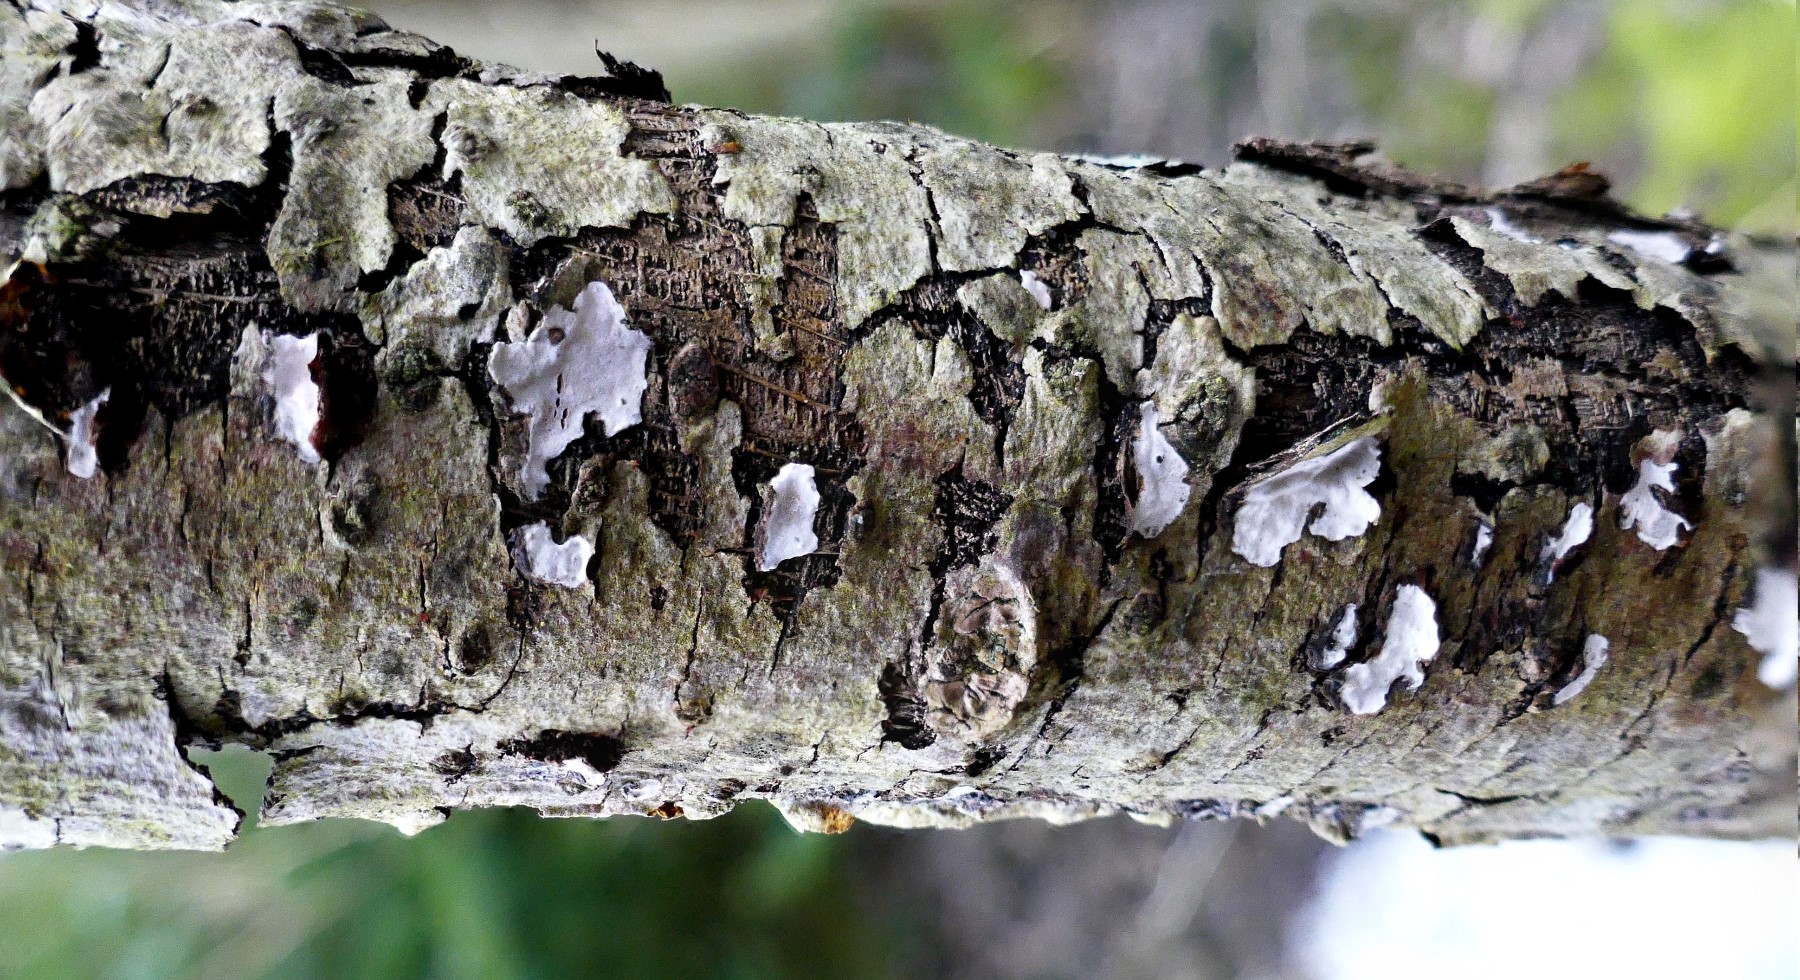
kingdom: Fungi
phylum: Basidiomycota
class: Agaricomycetes
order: Russulales
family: Peniophoraceae
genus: Peniophora
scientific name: Peniophora polygonia
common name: polygon-voksskind
